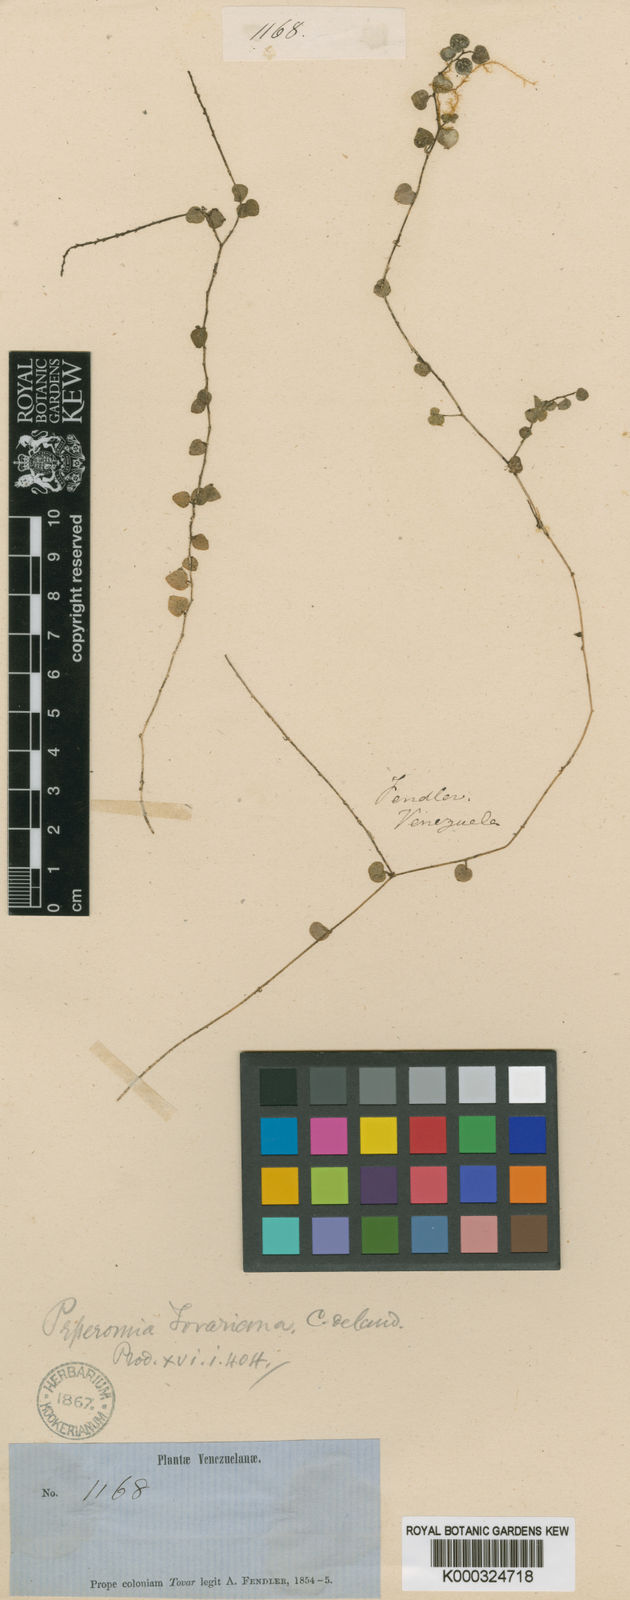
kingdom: Plantae
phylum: Tracheophyta
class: Magnoliopsida
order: Piperales
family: Piperaceae
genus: Peperomia
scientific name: Peperomia tovariana
